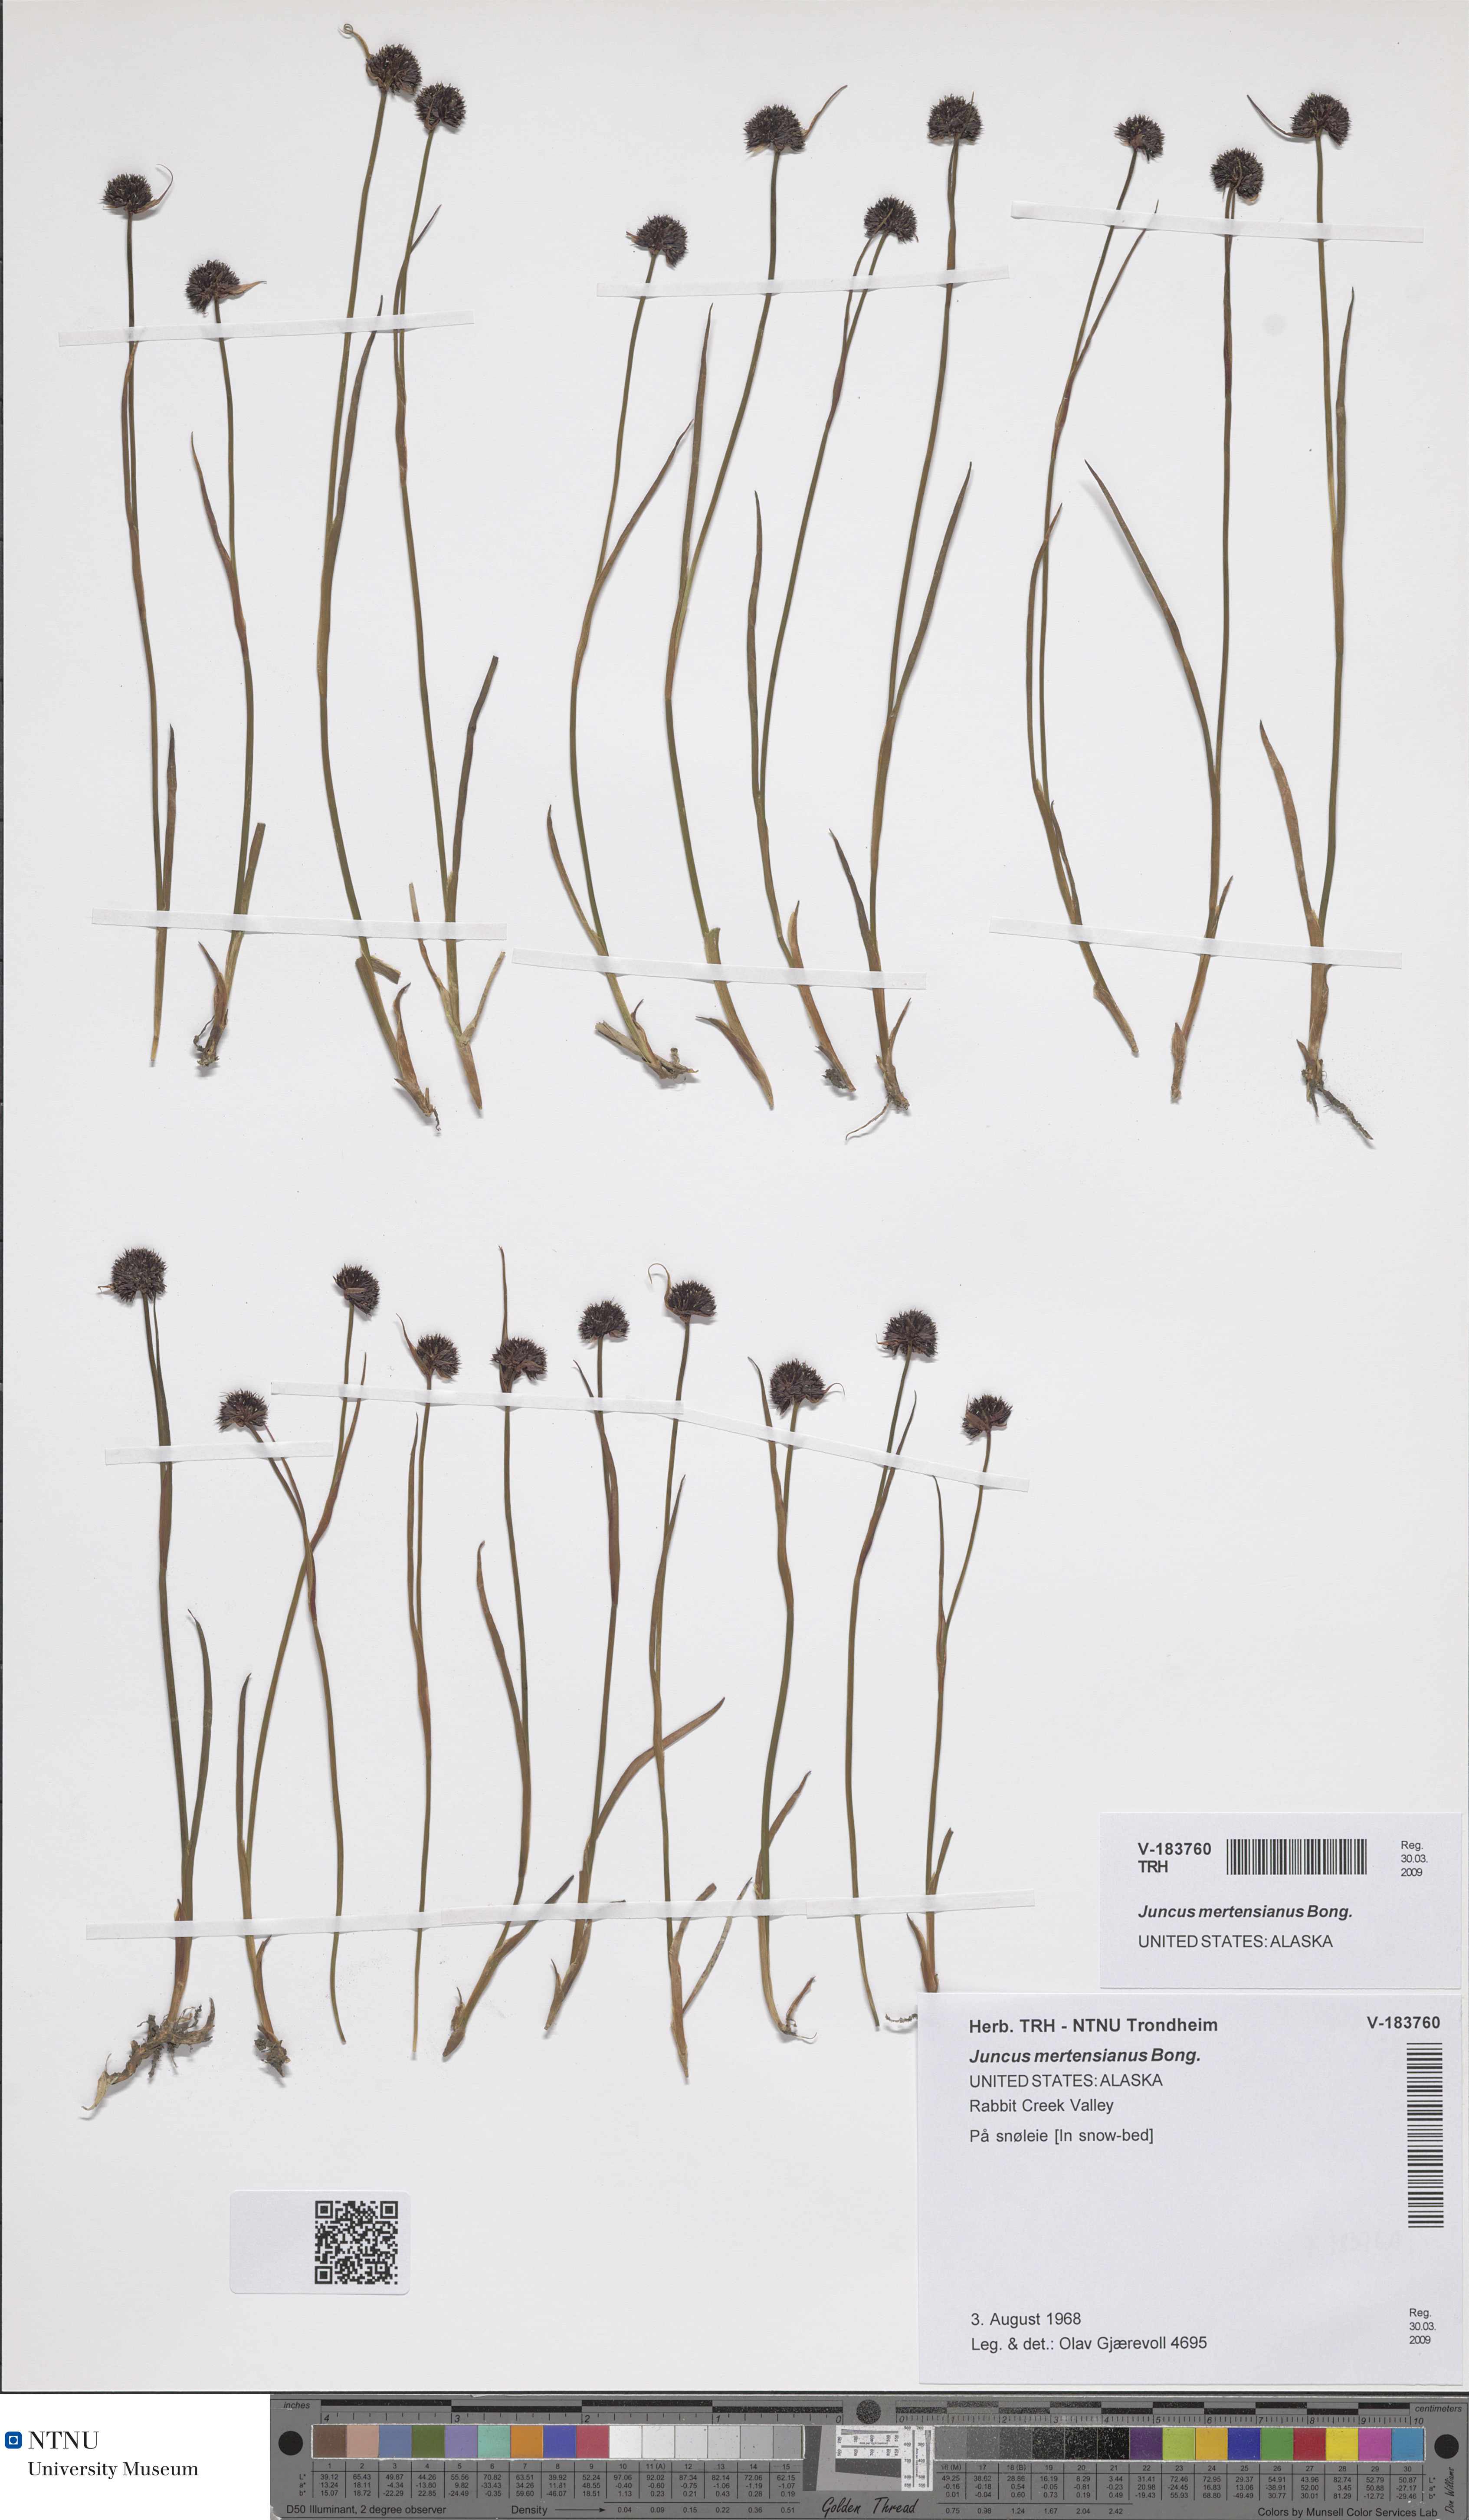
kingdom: Plantae
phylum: Tracheophyta
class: Liliopsida
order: Poales
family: Juncaceae
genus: Juncus
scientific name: Juncus mertensianus
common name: Merten's rush
